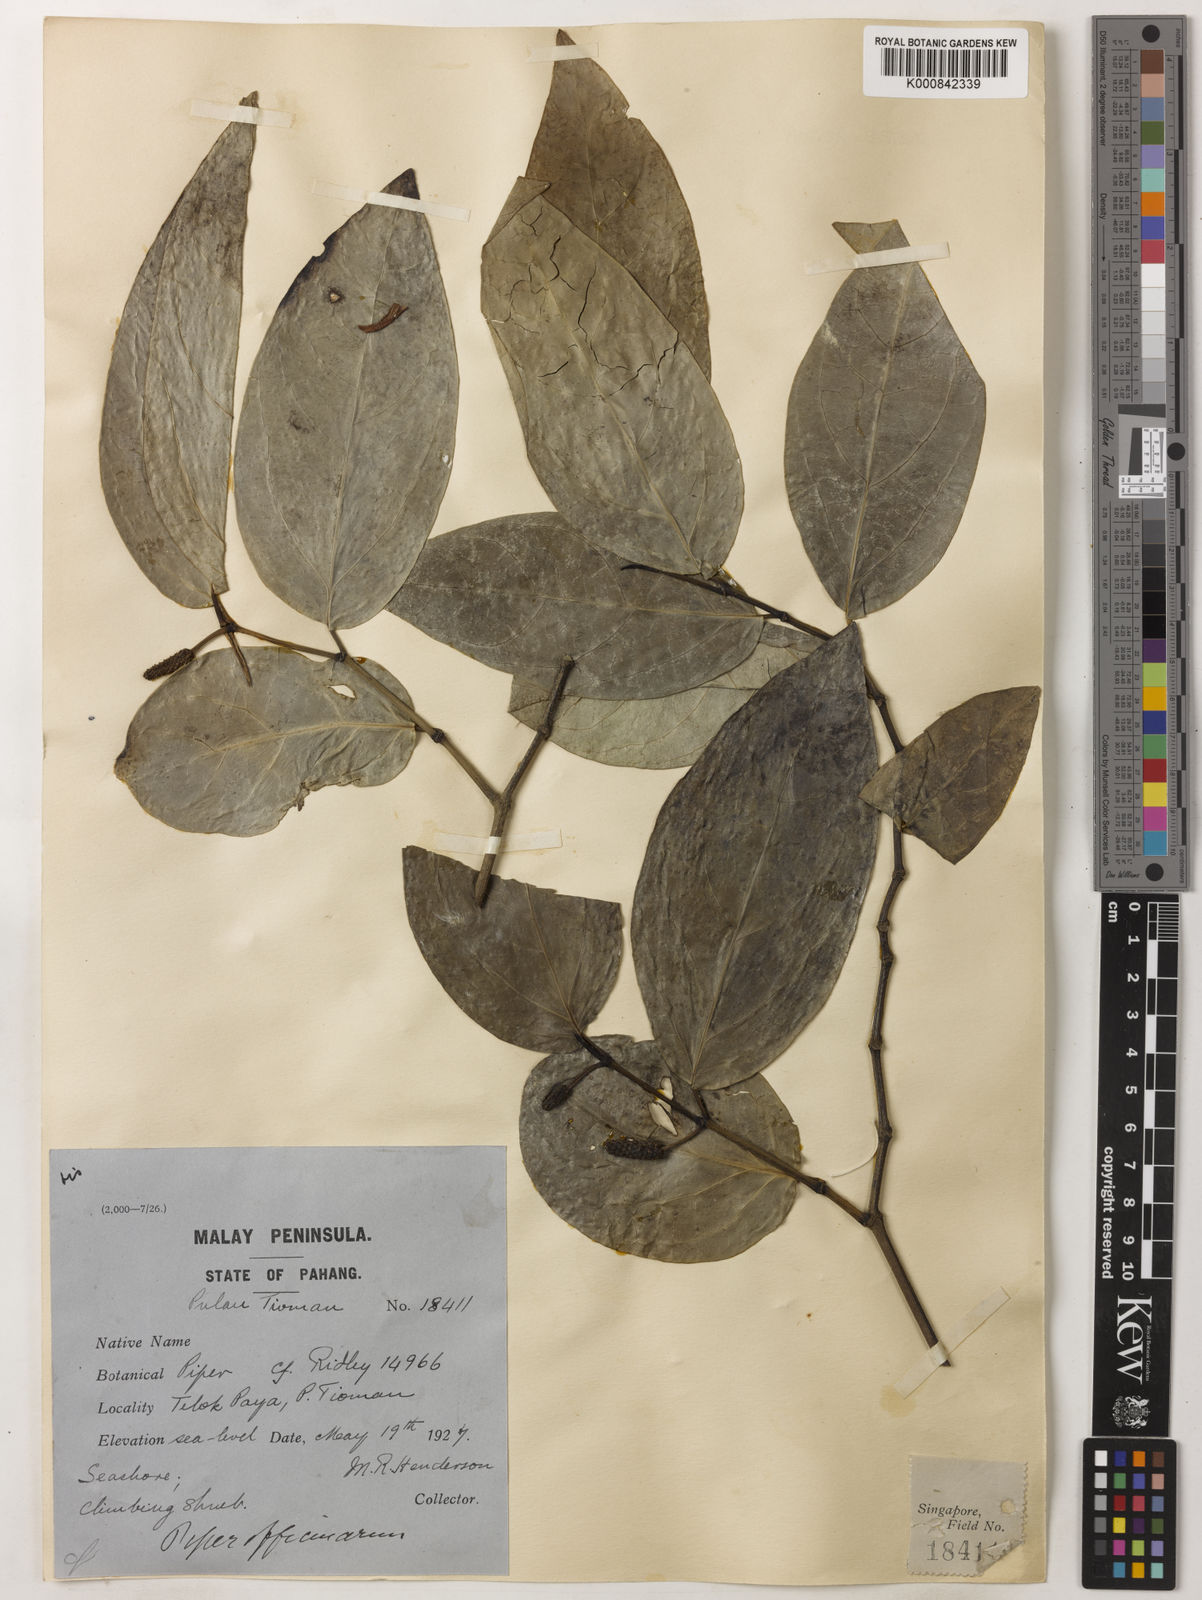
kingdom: Plantae
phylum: Tracheophyta
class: Magnoliopsida
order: Piperales
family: Piperaceae
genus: Piper
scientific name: Piper retrofractum
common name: Javanese long pepper
